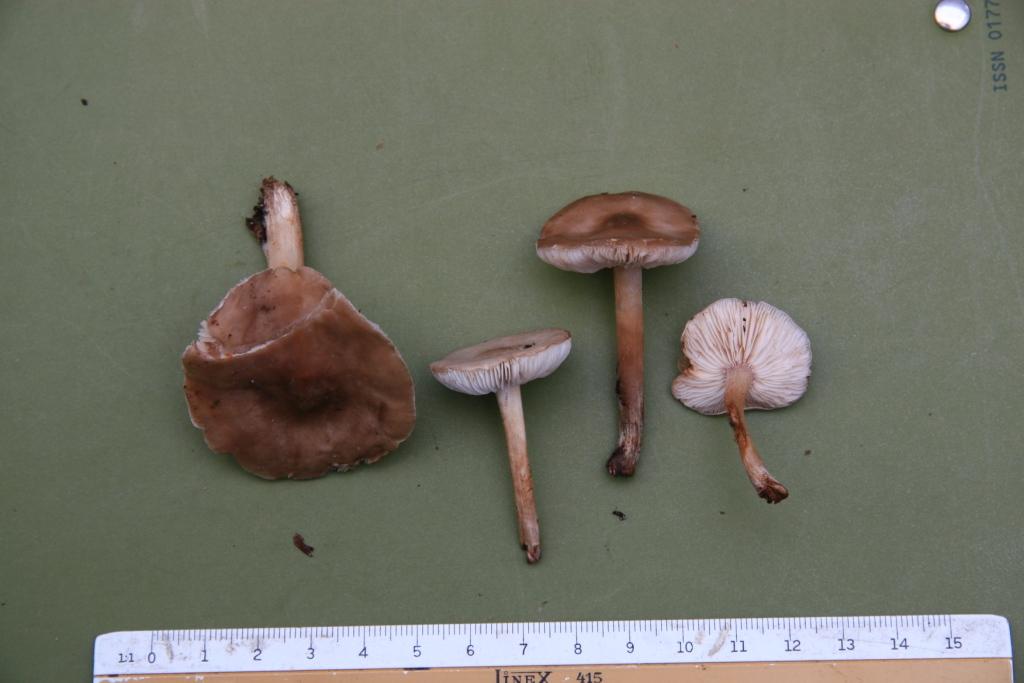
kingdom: Fungi
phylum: Basidiomycota
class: Agaricomycetes
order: Agaricales
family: Tricholomataceae
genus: Melanoleuca
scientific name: Melanoleuca polioleuca
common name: hvidbladet munkehat
